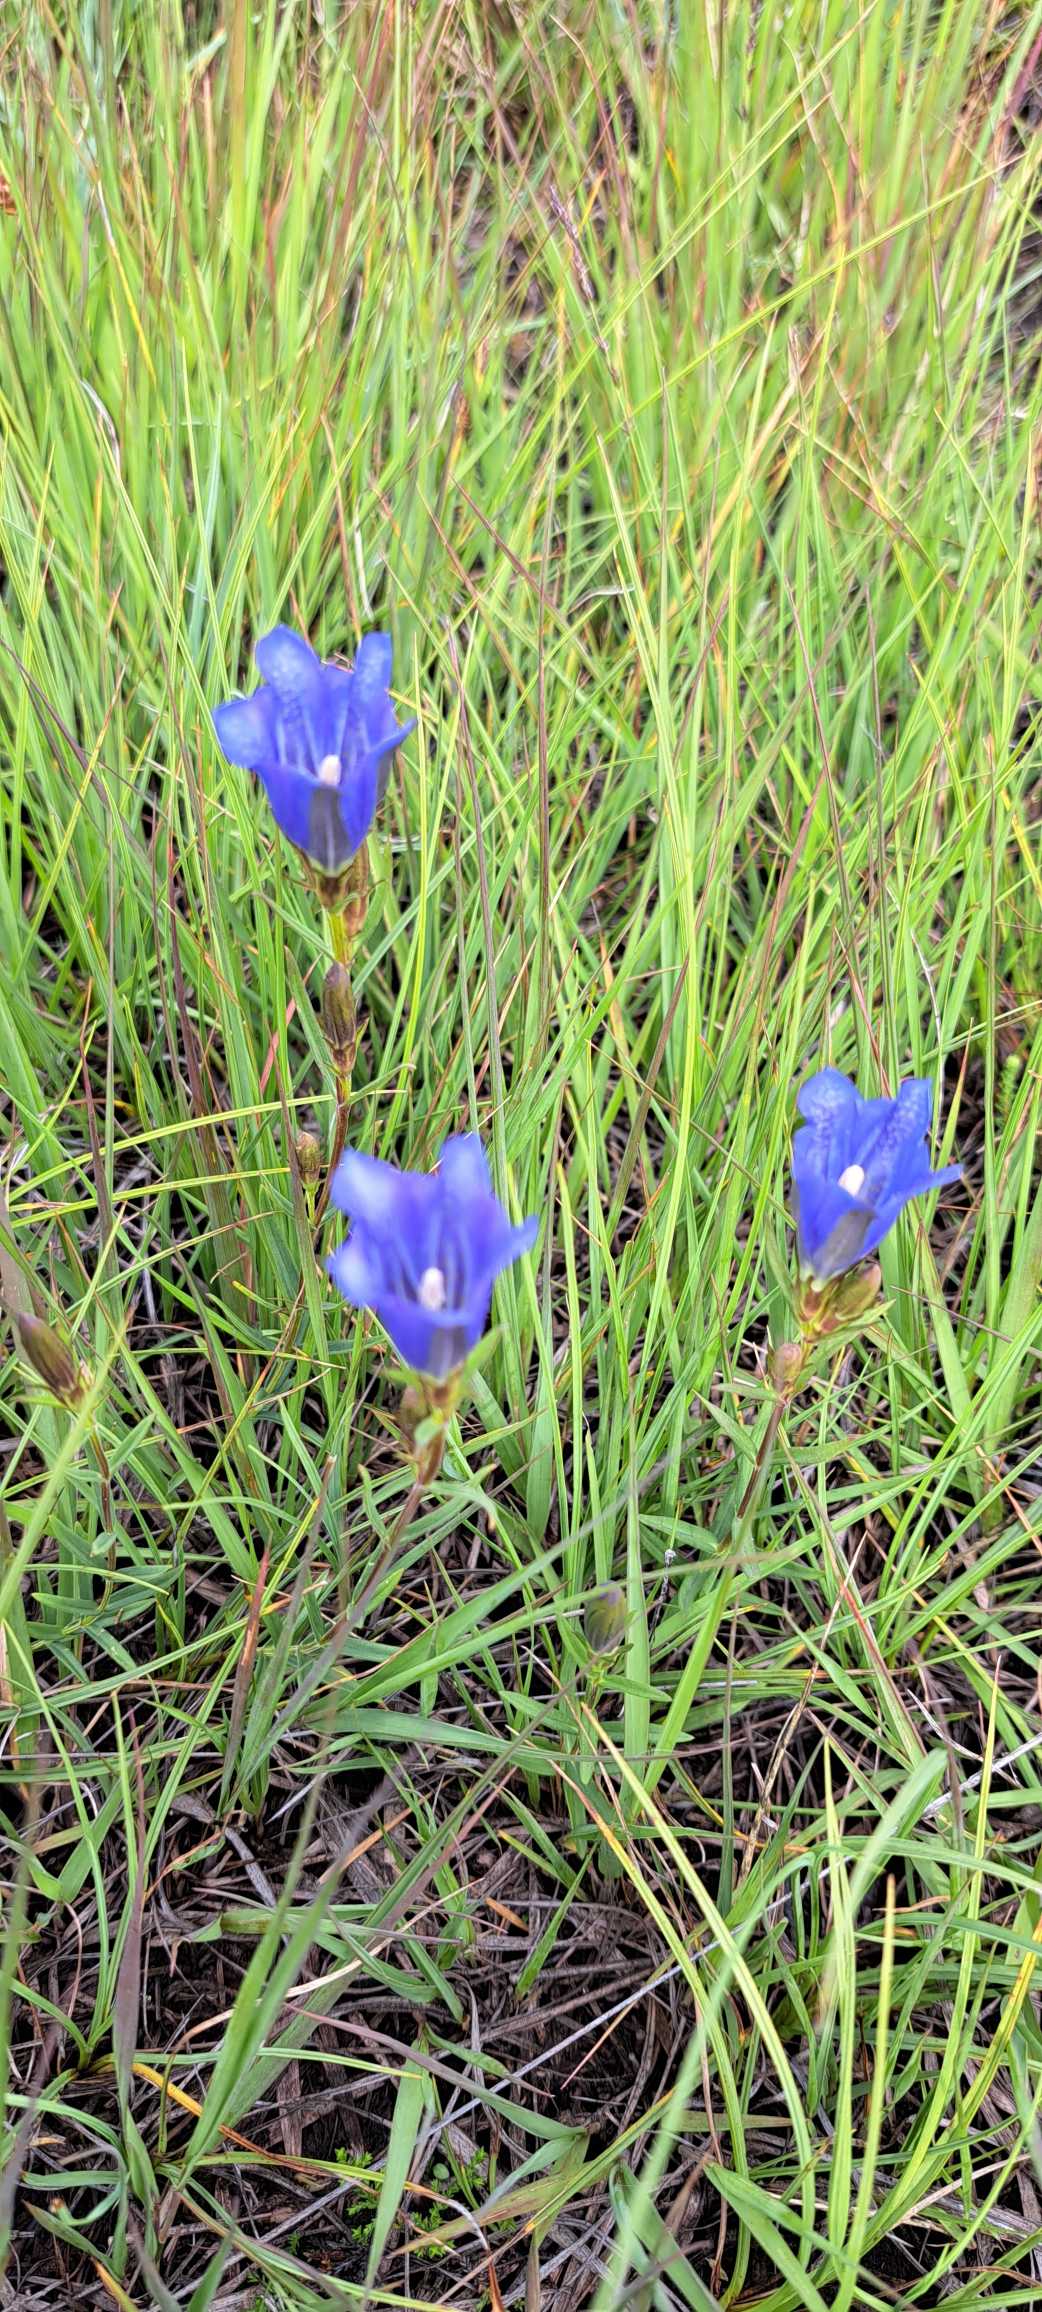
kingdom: Plantae
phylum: Tracheophyta
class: Magnoliopsida
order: Gentianales
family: Gentianaceae
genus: Gentiana
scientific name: Gentiana pneumonanthe
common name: Klokke-ensian
